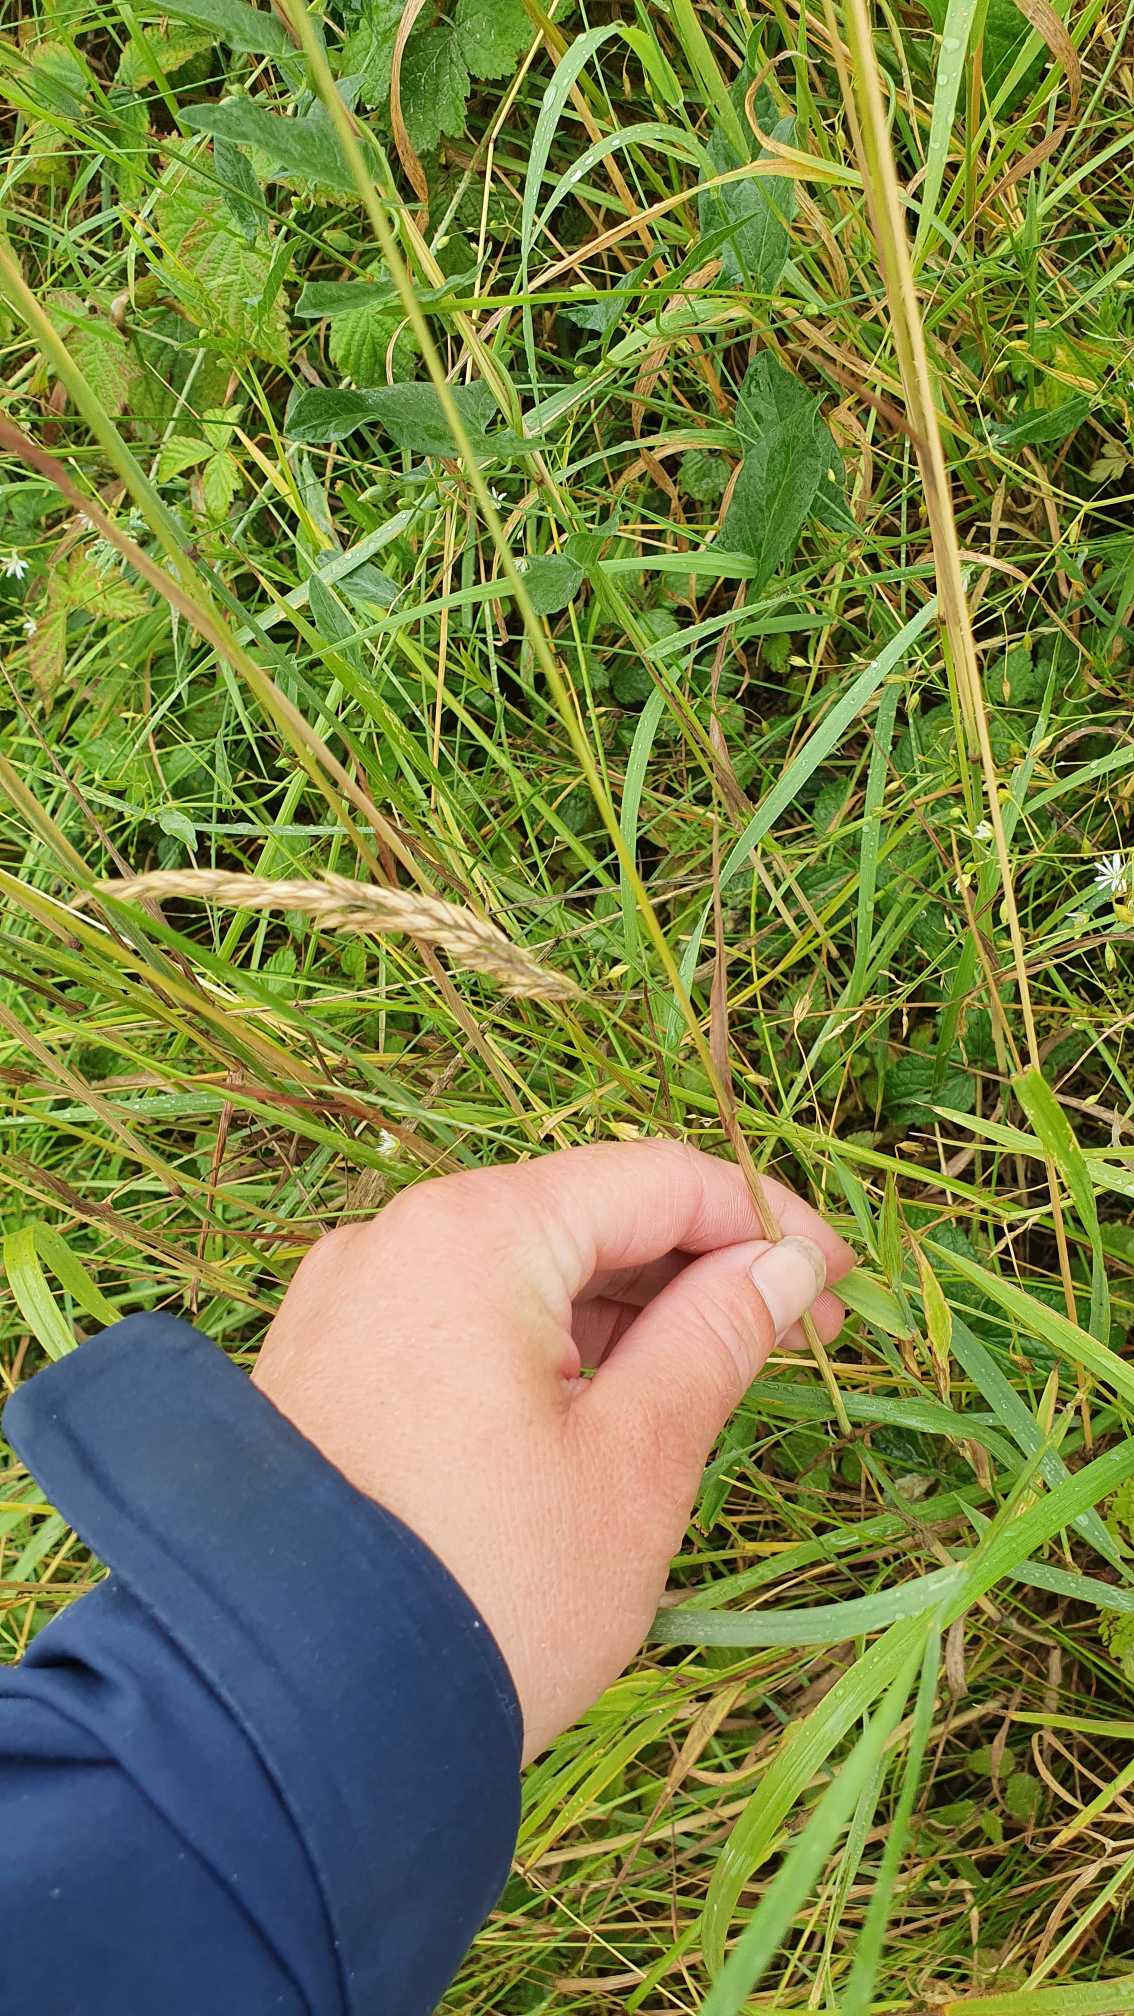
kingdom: Plantae
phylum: Tracheophyta
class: Liliopsida
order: Poales
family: Poaceae
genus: Phleum
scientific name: Phleum
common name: Rottehaleslægten
